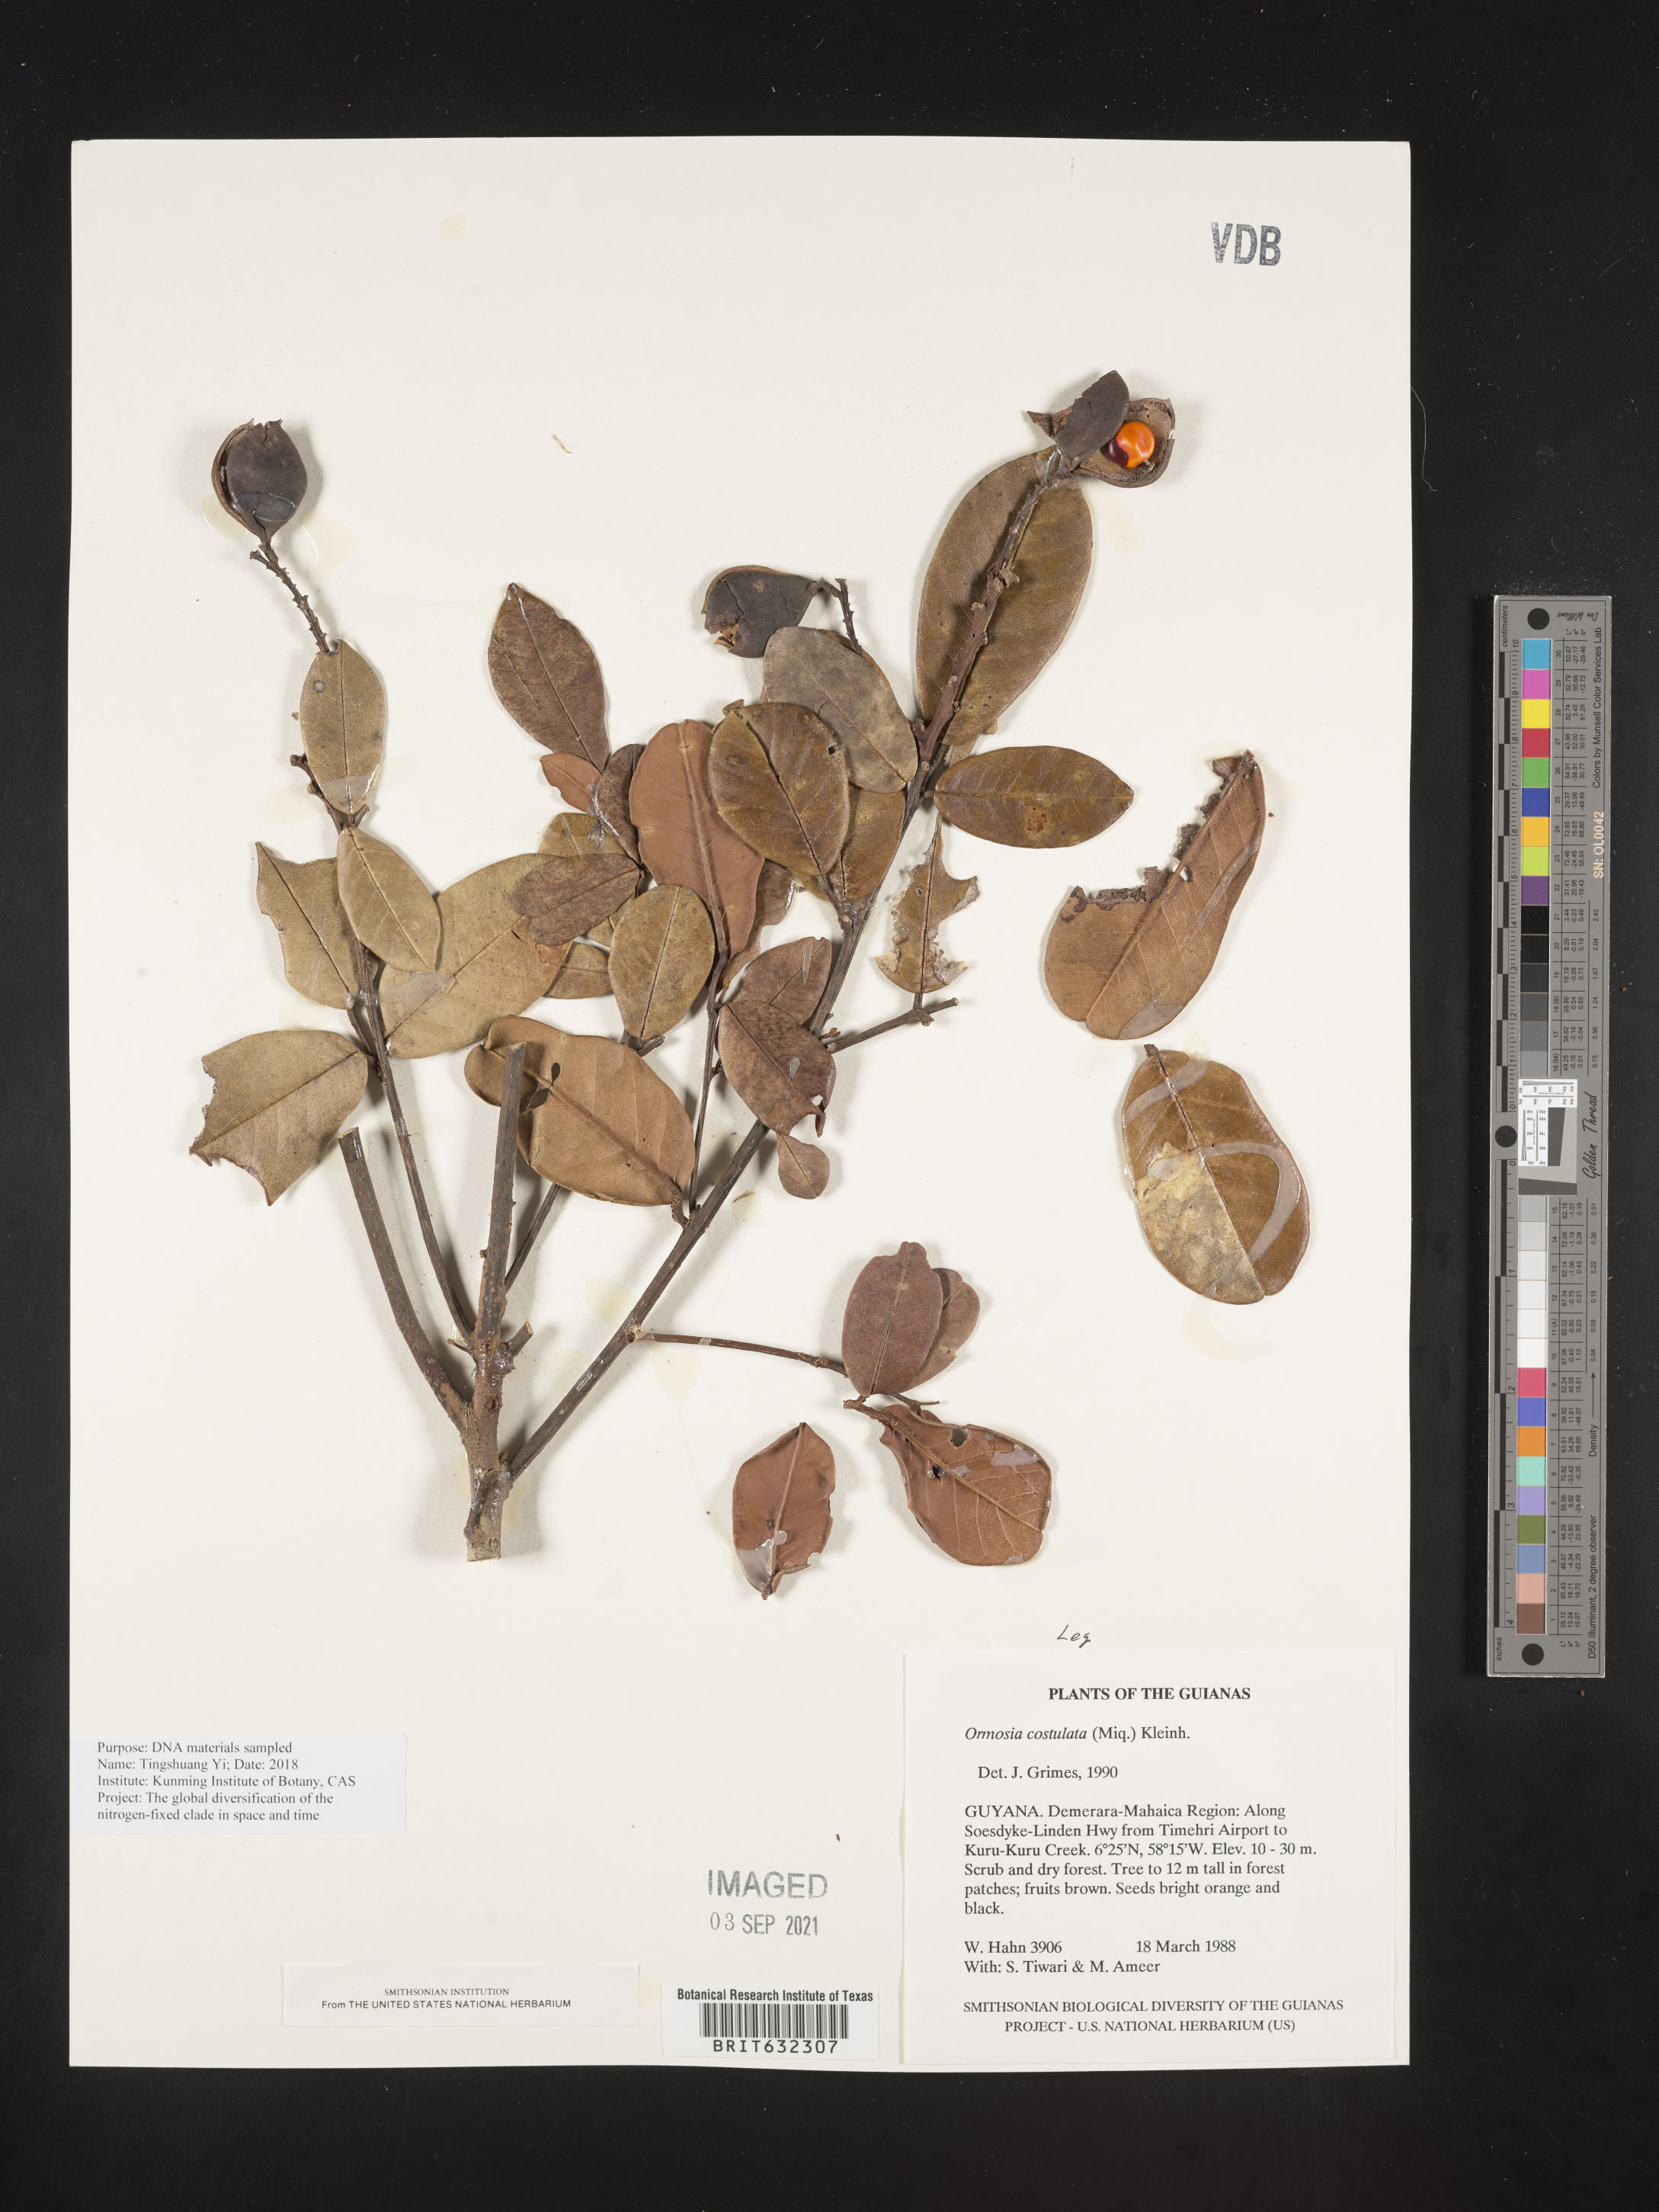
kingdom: Plantae
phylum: Tracheophyta
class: Magnoliopsida
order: Fabales
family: Fabaceae
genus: Ormosia
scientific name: Ormosia
